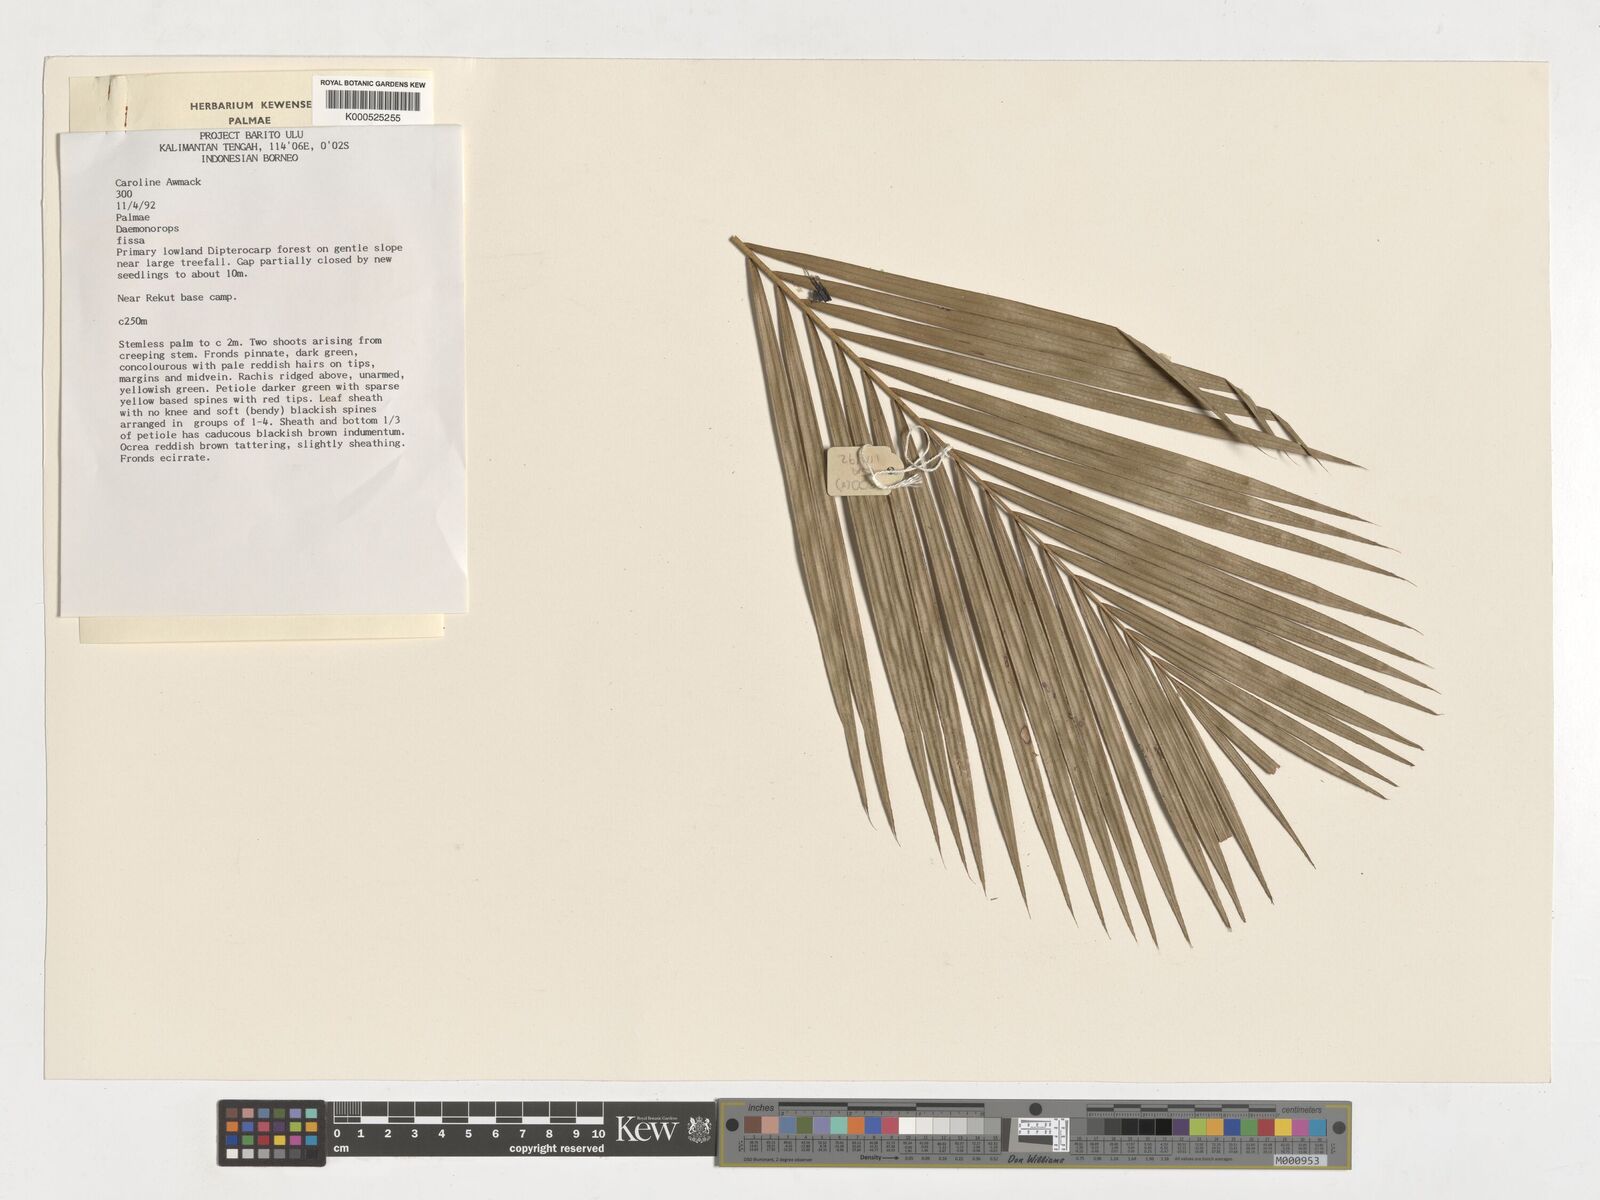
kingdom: Plantae
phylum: Tracheophyta
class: Liliopsida
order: Arecales
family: Arecaceae
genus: Calamus
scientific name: Calamus melanochaetes
